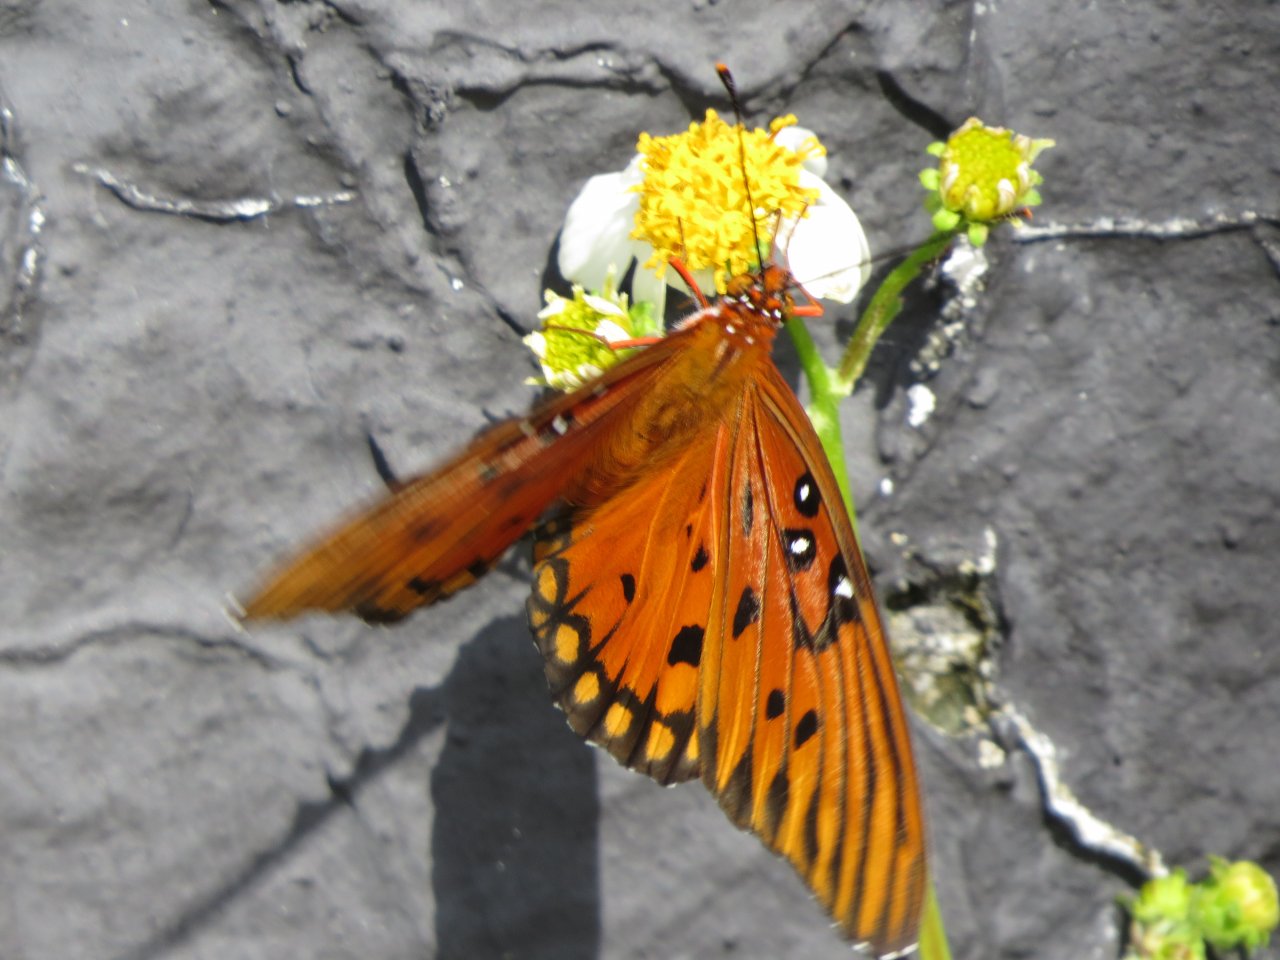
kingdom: Animalia
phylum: Arthropoda
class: Insecta
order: Lepidoptera
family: Nymphalidae
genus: Dione
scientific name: Dione vanillae
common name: Gulf Fritillary
